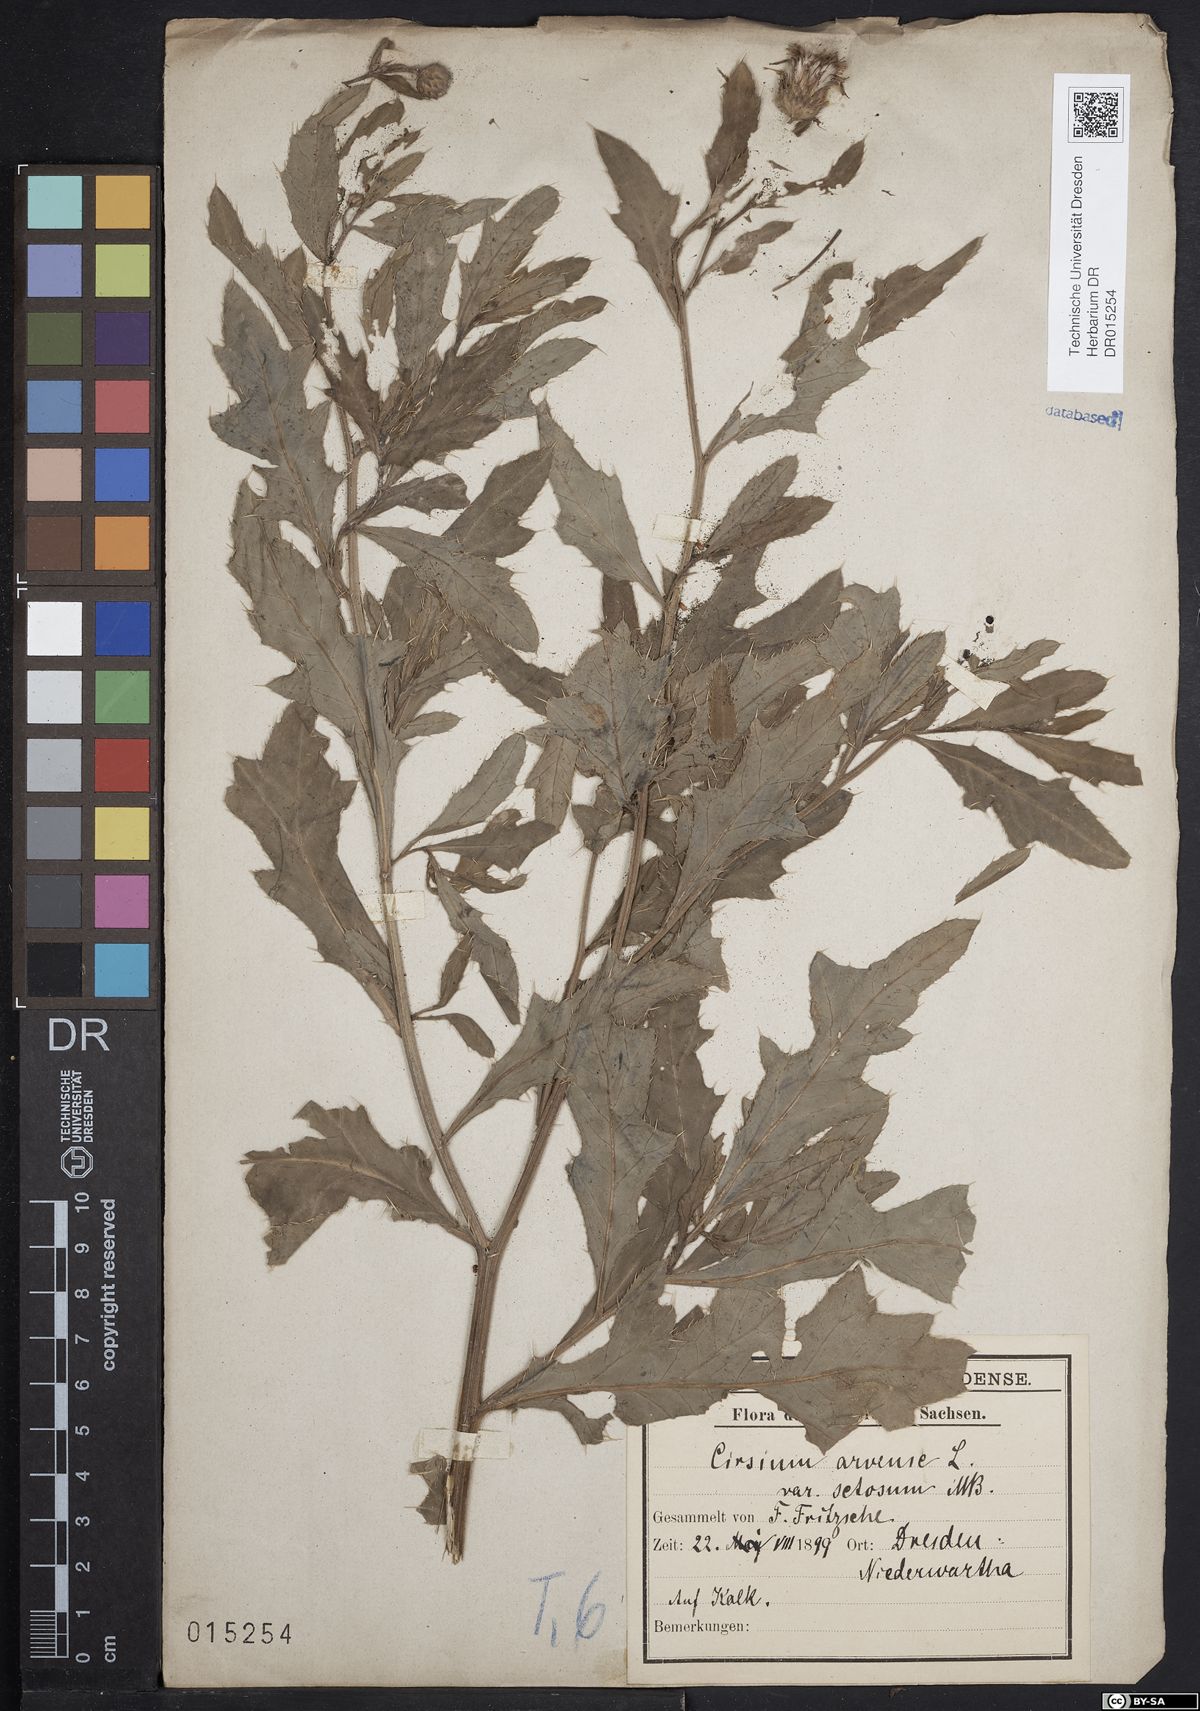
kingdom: Plantae
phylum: Tracheophyta
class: Magnoliopsida
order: Asterales
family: Asteraceae
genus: Cirsium
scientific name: Cirsium arvense
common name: Creeping thistle
